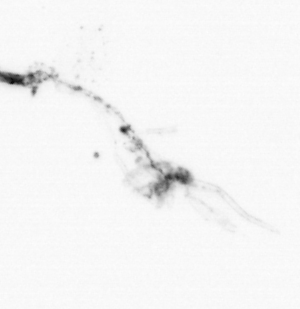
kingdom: Animalia
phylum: Chordata
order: Copelata
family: Fritillariidae
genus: Appendicularia
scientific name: Appendicularia
